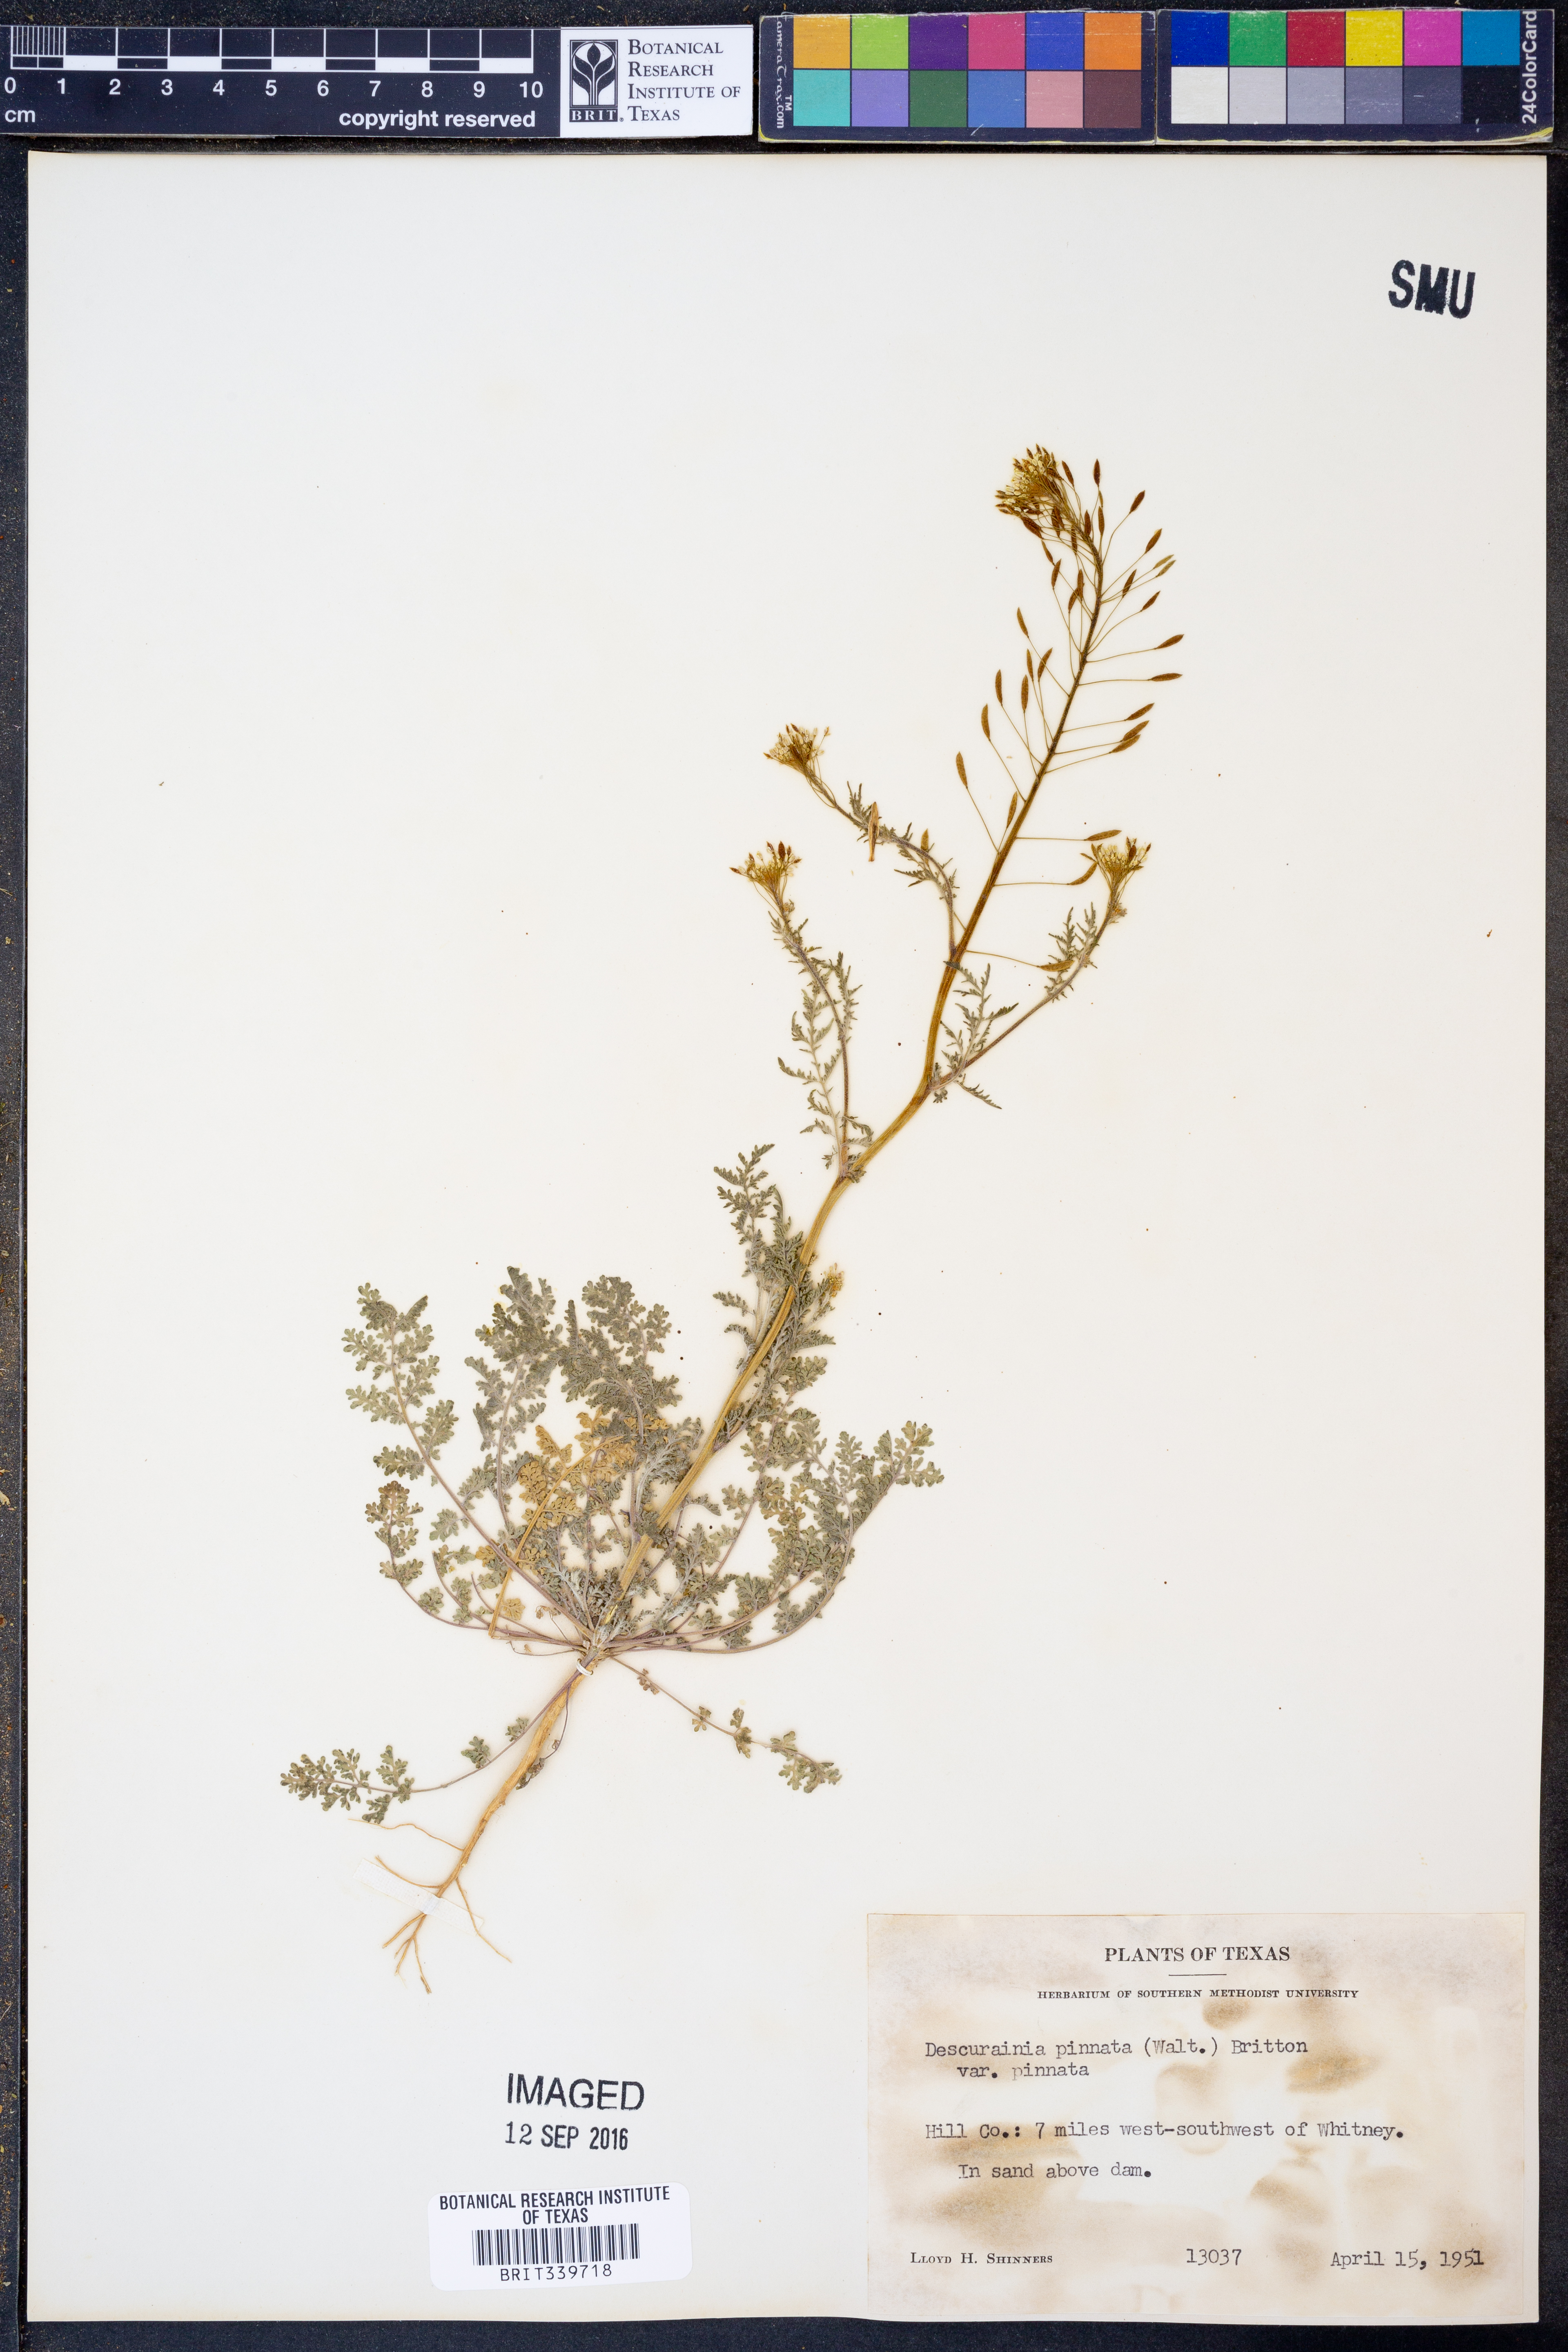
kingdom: Plantae
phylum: Tracheophyta
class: Magnoliopsida
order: Brassicales
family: Brassicaceae
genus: Descurainia
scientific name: Descurainia pinnata
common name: Western tansy mustard
